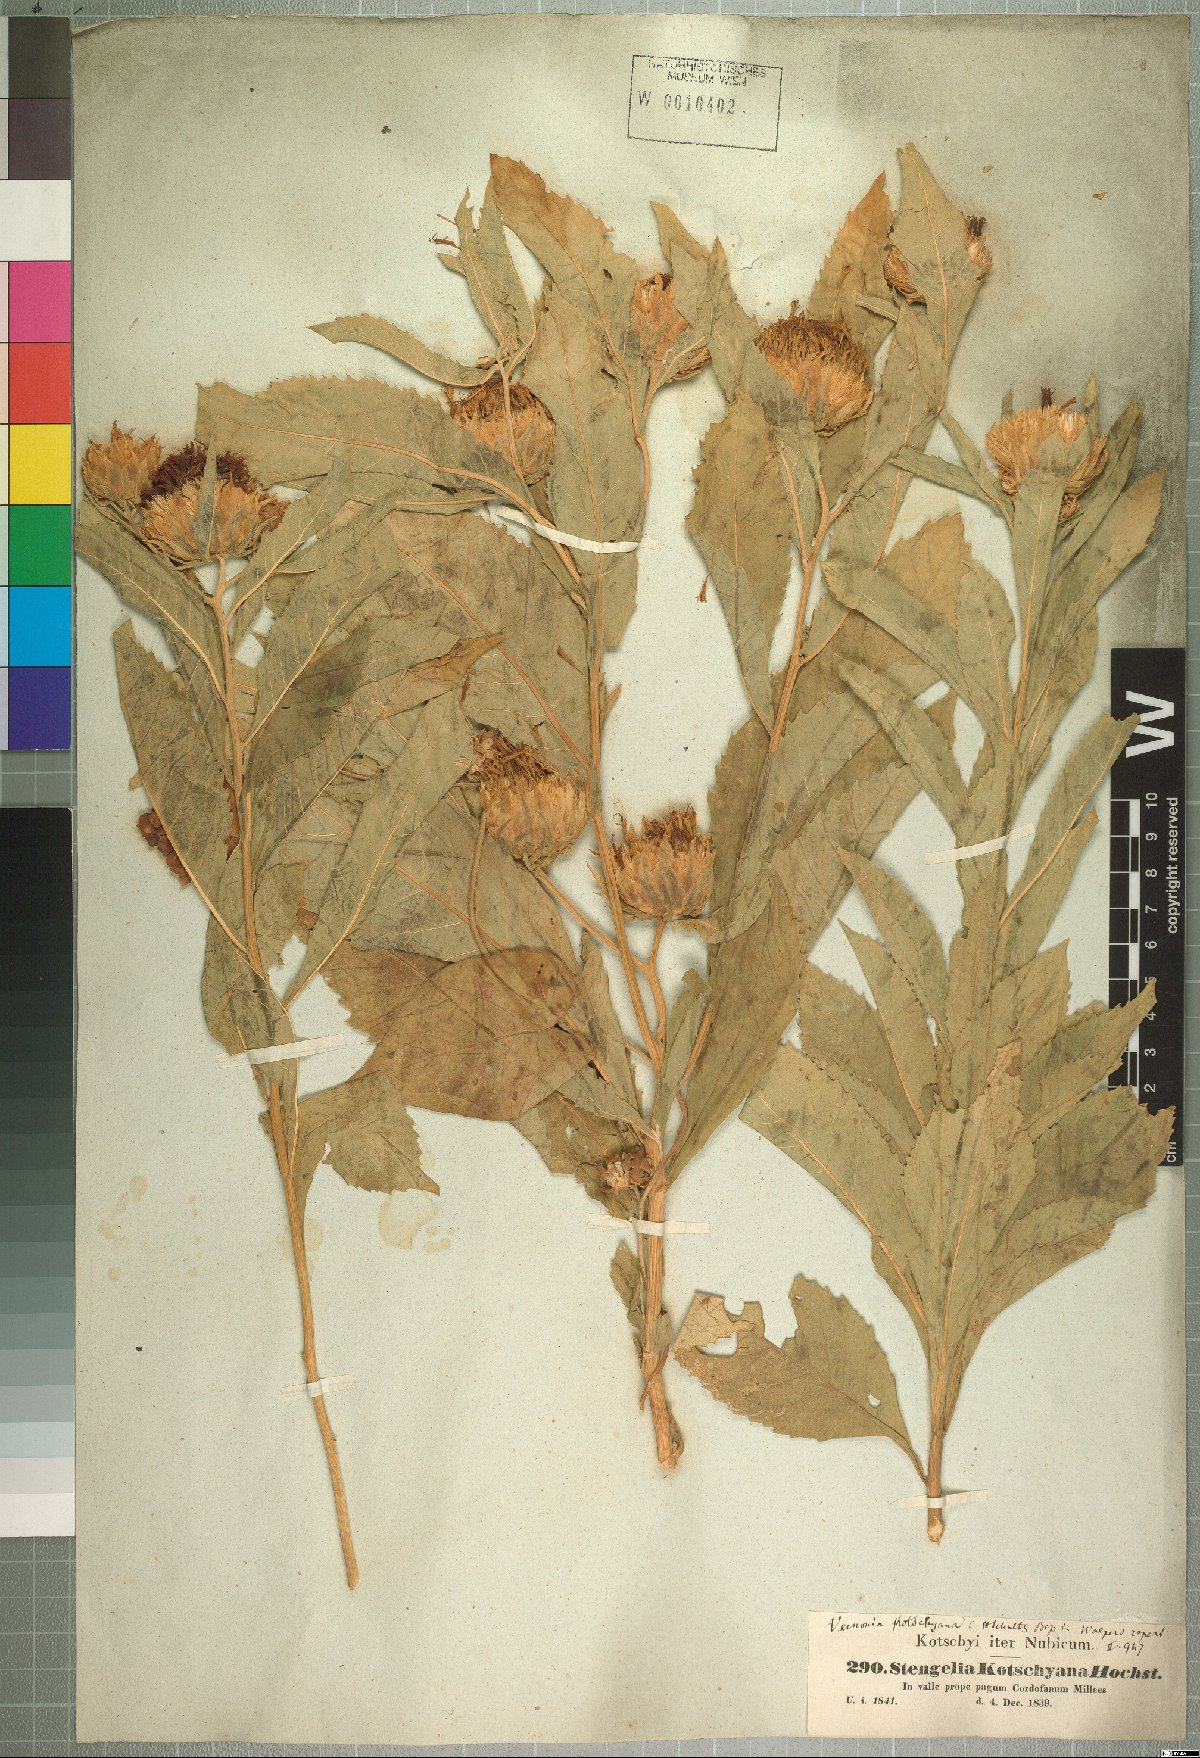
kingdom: Plantae
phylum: Tracheophyta
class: Magnoliopsida
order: Asterales
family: Asteraceae
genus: Baccharoides
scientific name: Baccharoides adoensis
